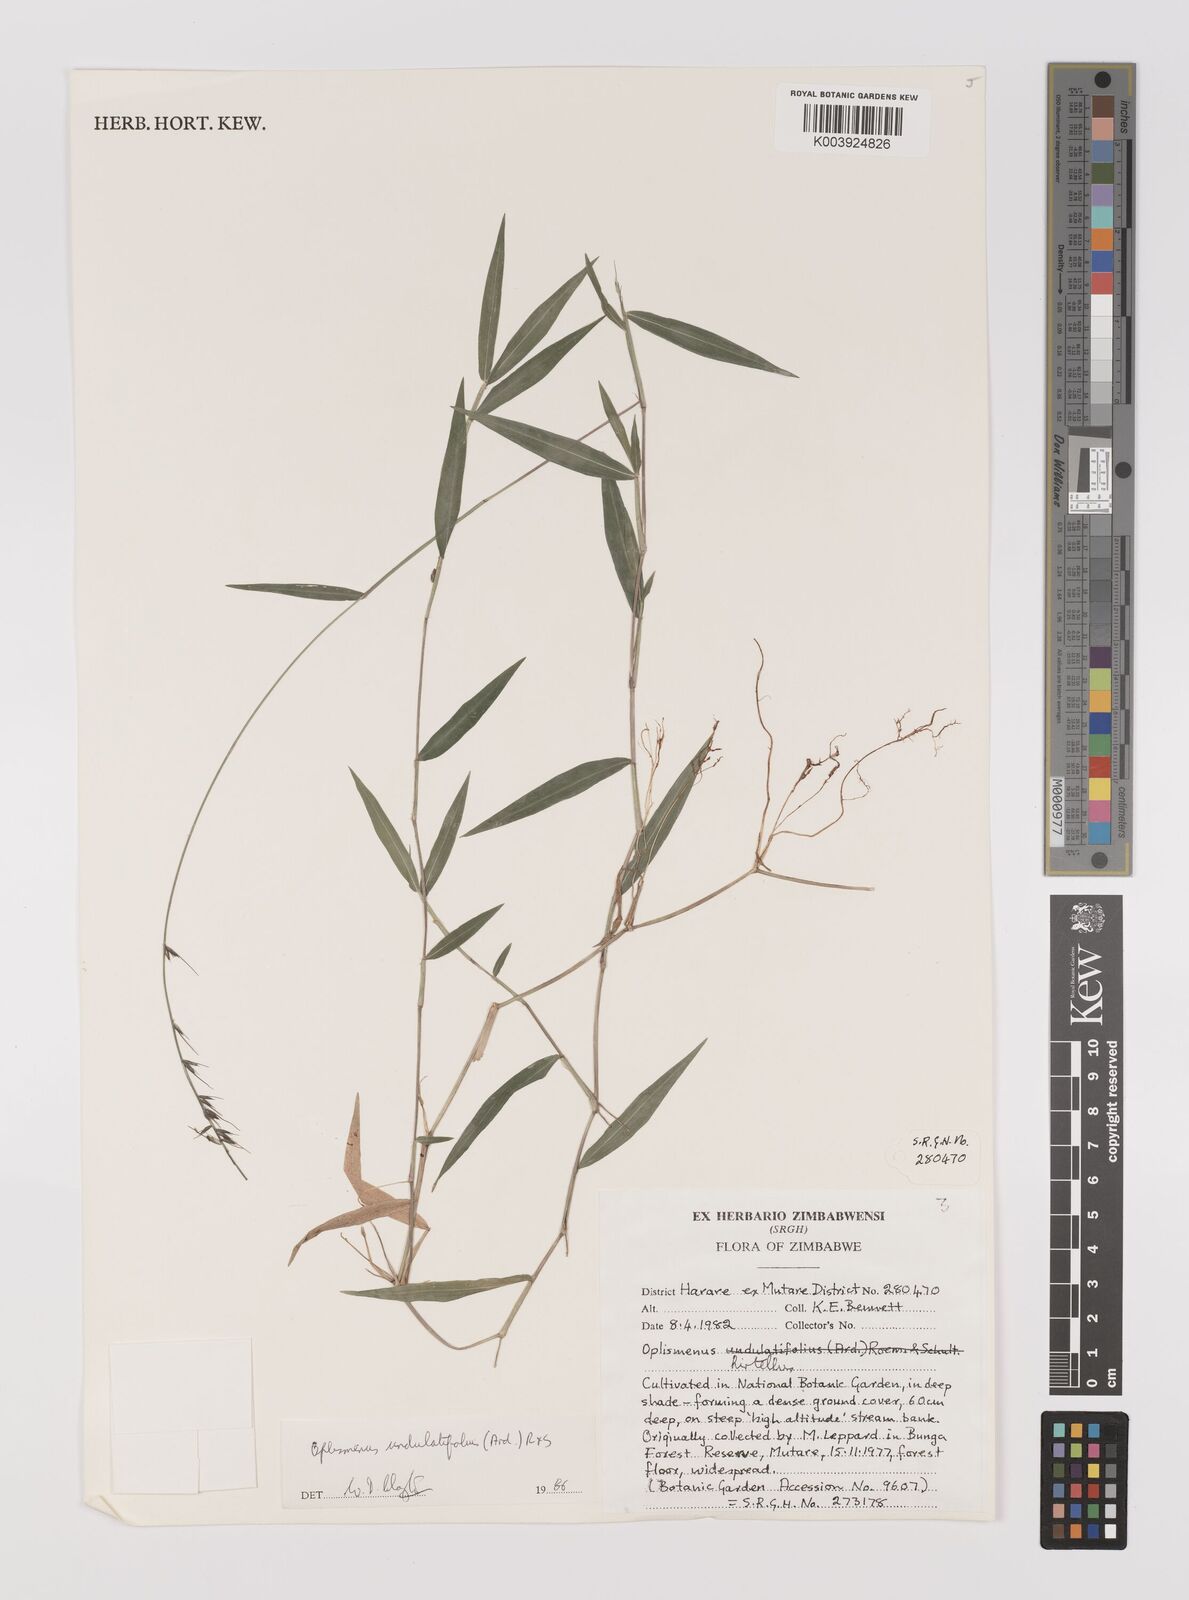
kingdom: Plantae
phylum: Tracheophyta
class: Liliopsida
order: Poales
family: Poaceae
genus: Oplismenus
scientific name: Oplismenus undulatifolius
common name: Wavyleaf basketgrass
